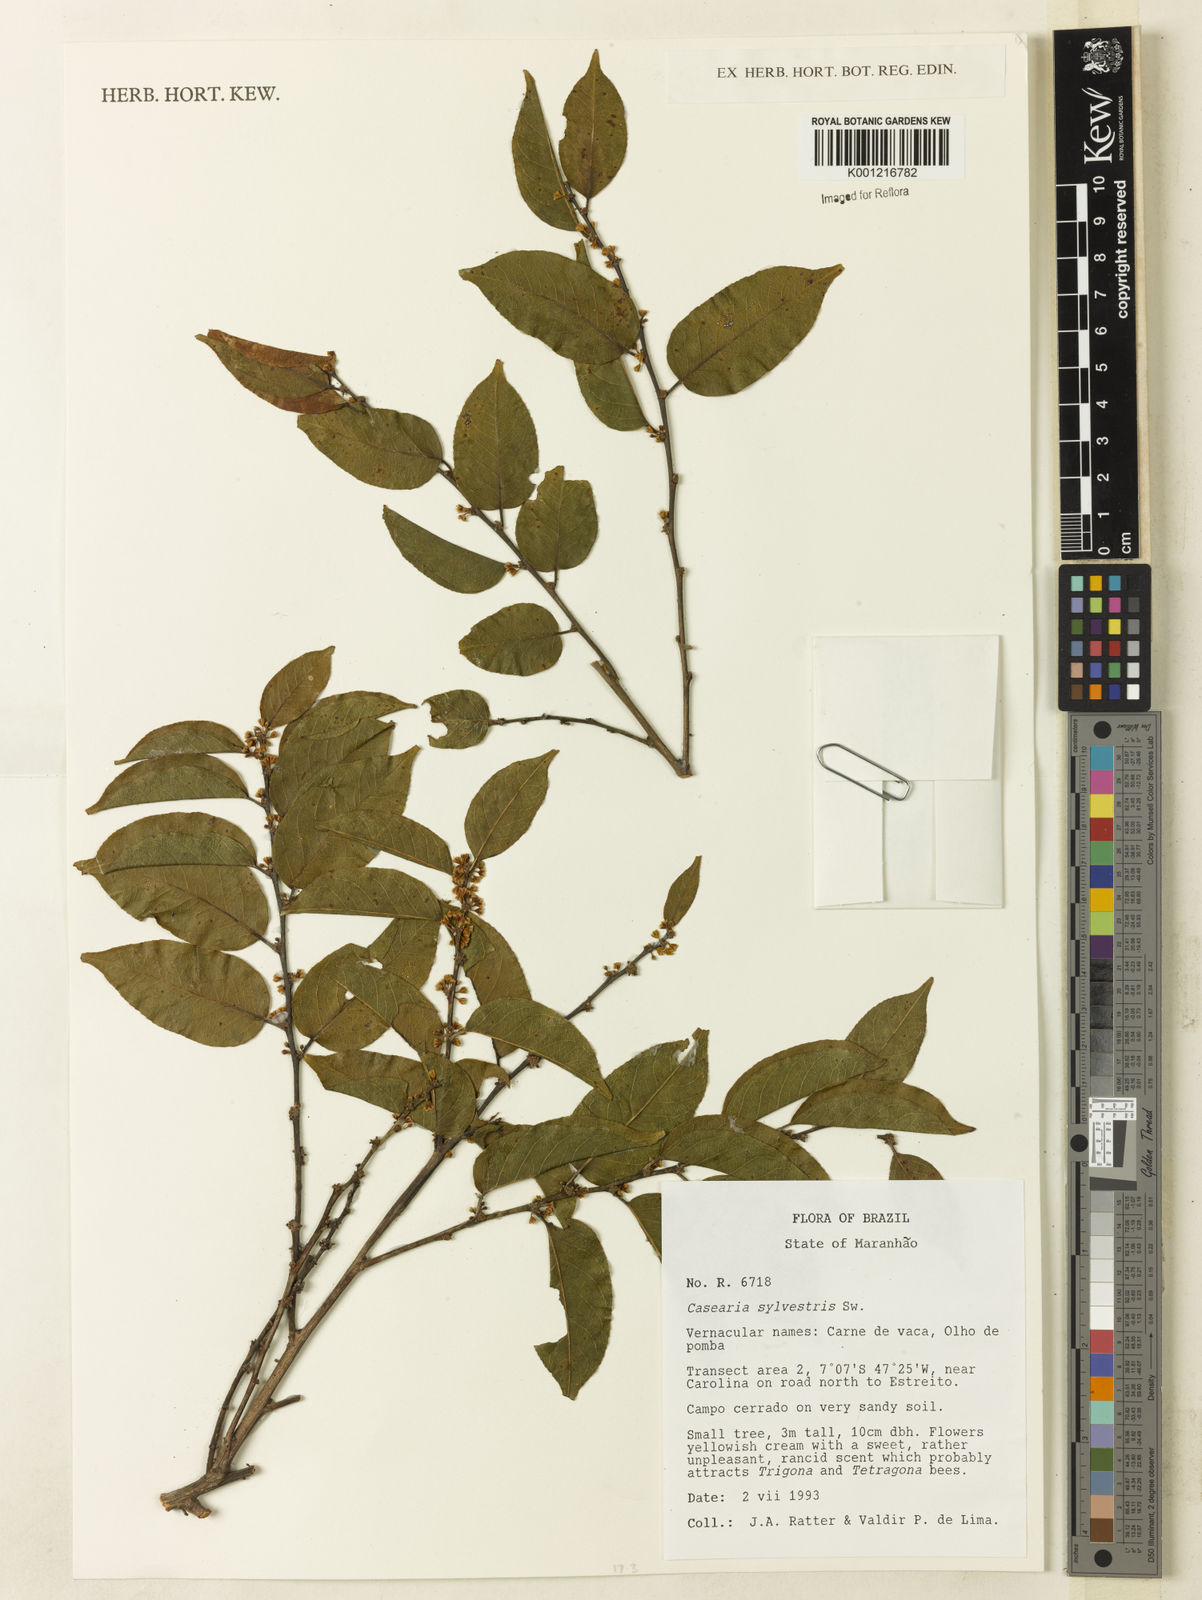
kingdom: Plantae
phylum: Tracheophyta
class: Magnoliopsida
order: Malpighiales
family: Salicaceae
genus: Casearia
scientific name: Casearia sylvestris
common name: Wild sage
